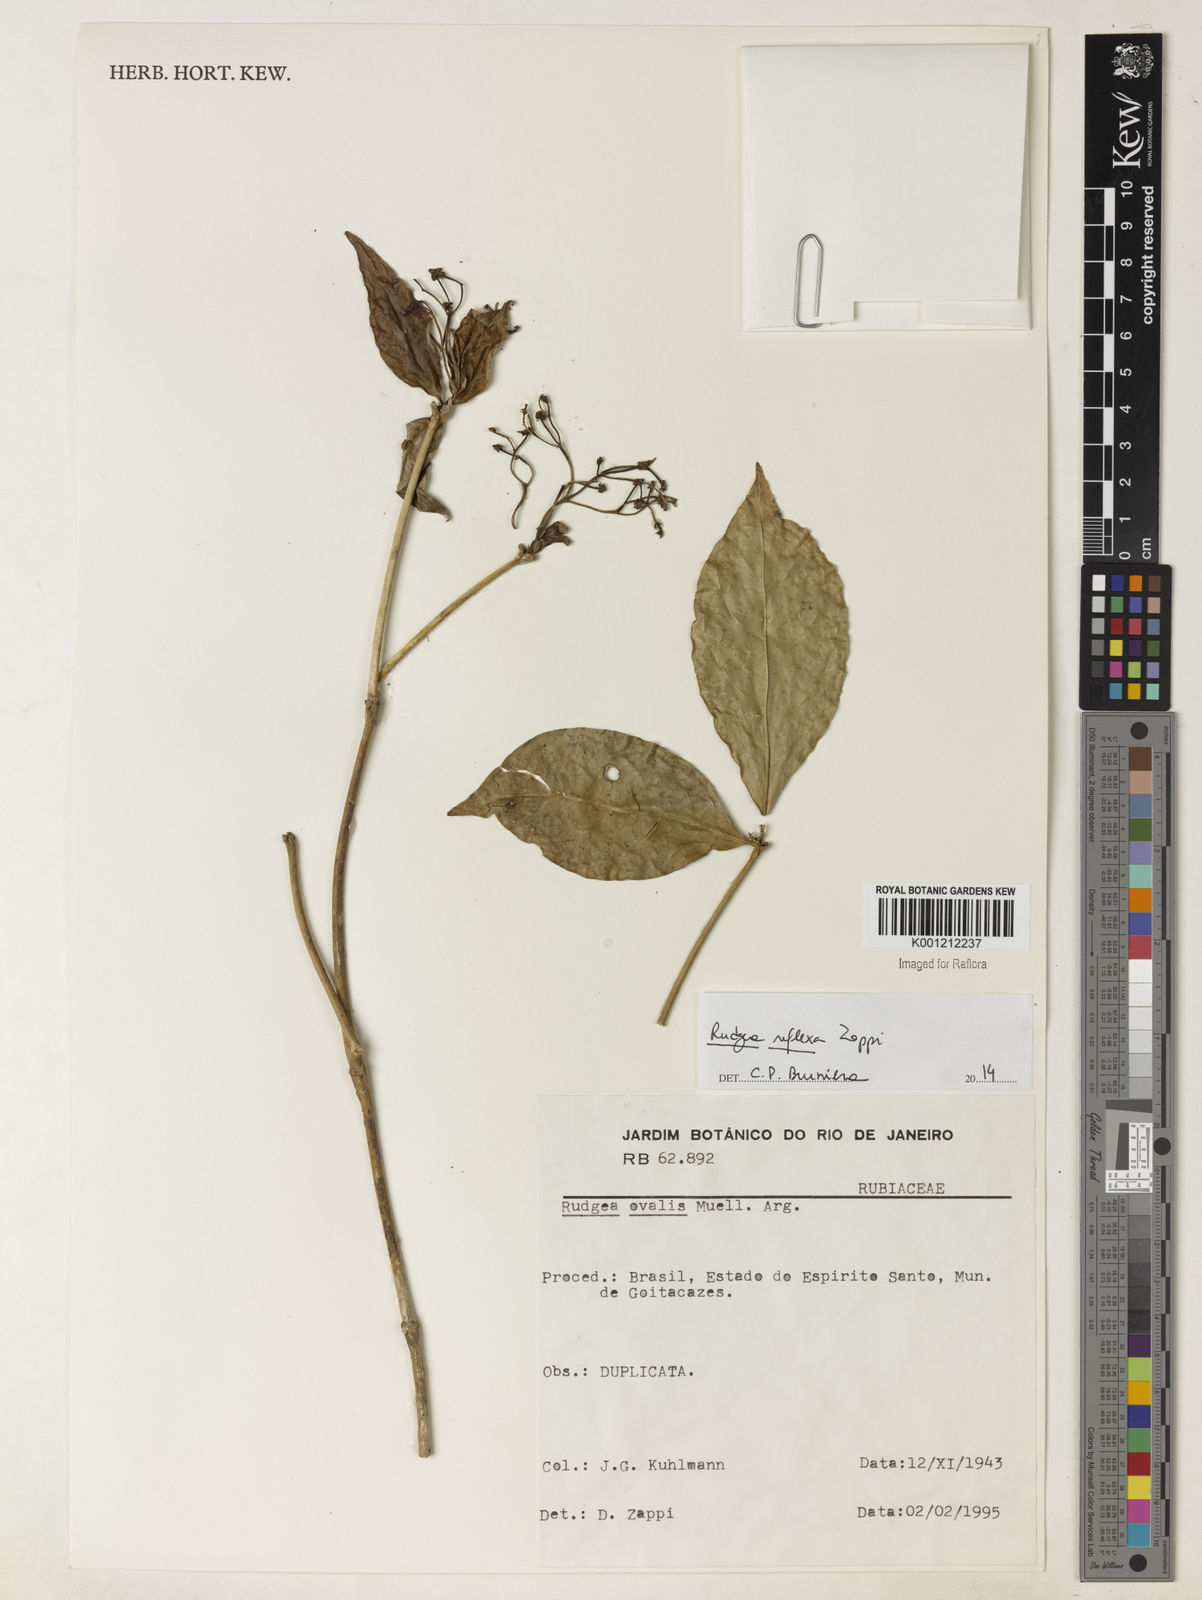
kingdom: Plantae
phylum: Tracheophyta
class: Magnoliopsida
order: Gentianales
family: Rubiaceae
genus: Rudgea
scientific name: Rudgea reflexa
